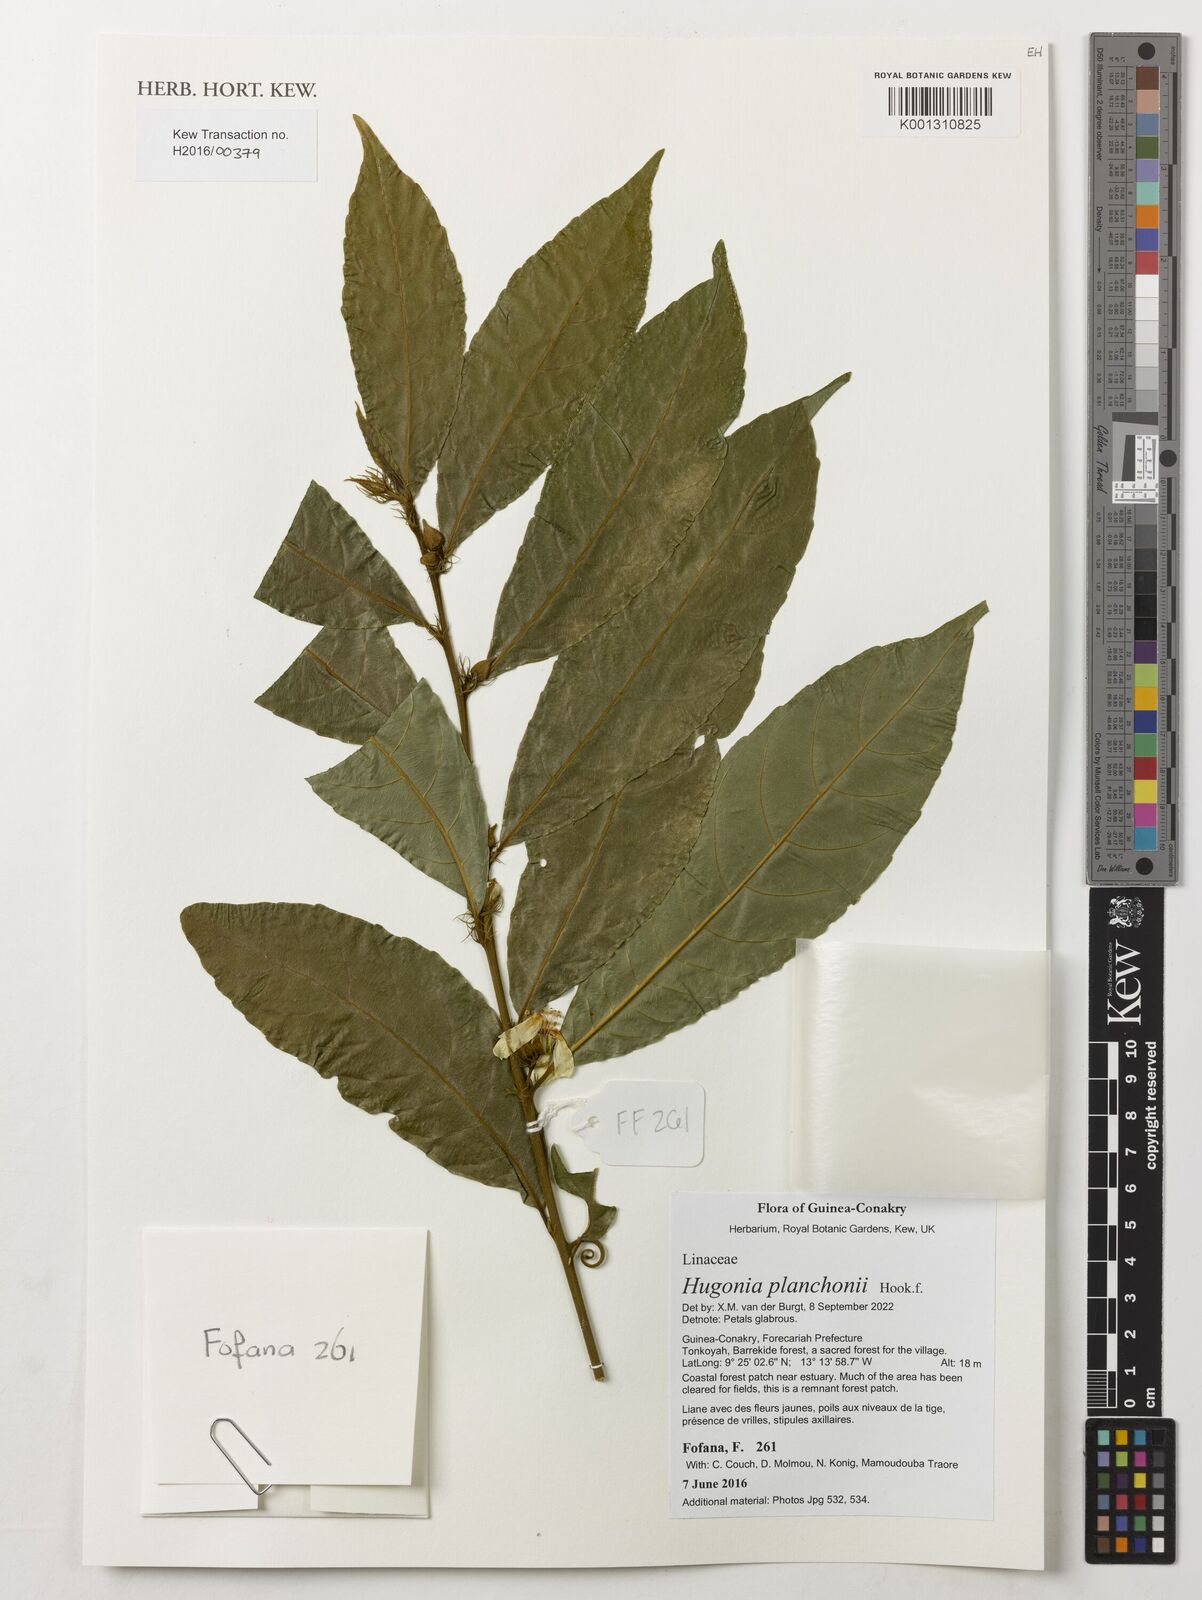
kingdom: Plantae
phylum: Tracheophyta
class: Magnoliopsida
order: Malpighiales
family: Linaceae
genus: Hugonia
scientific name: Hugonia planchonii
